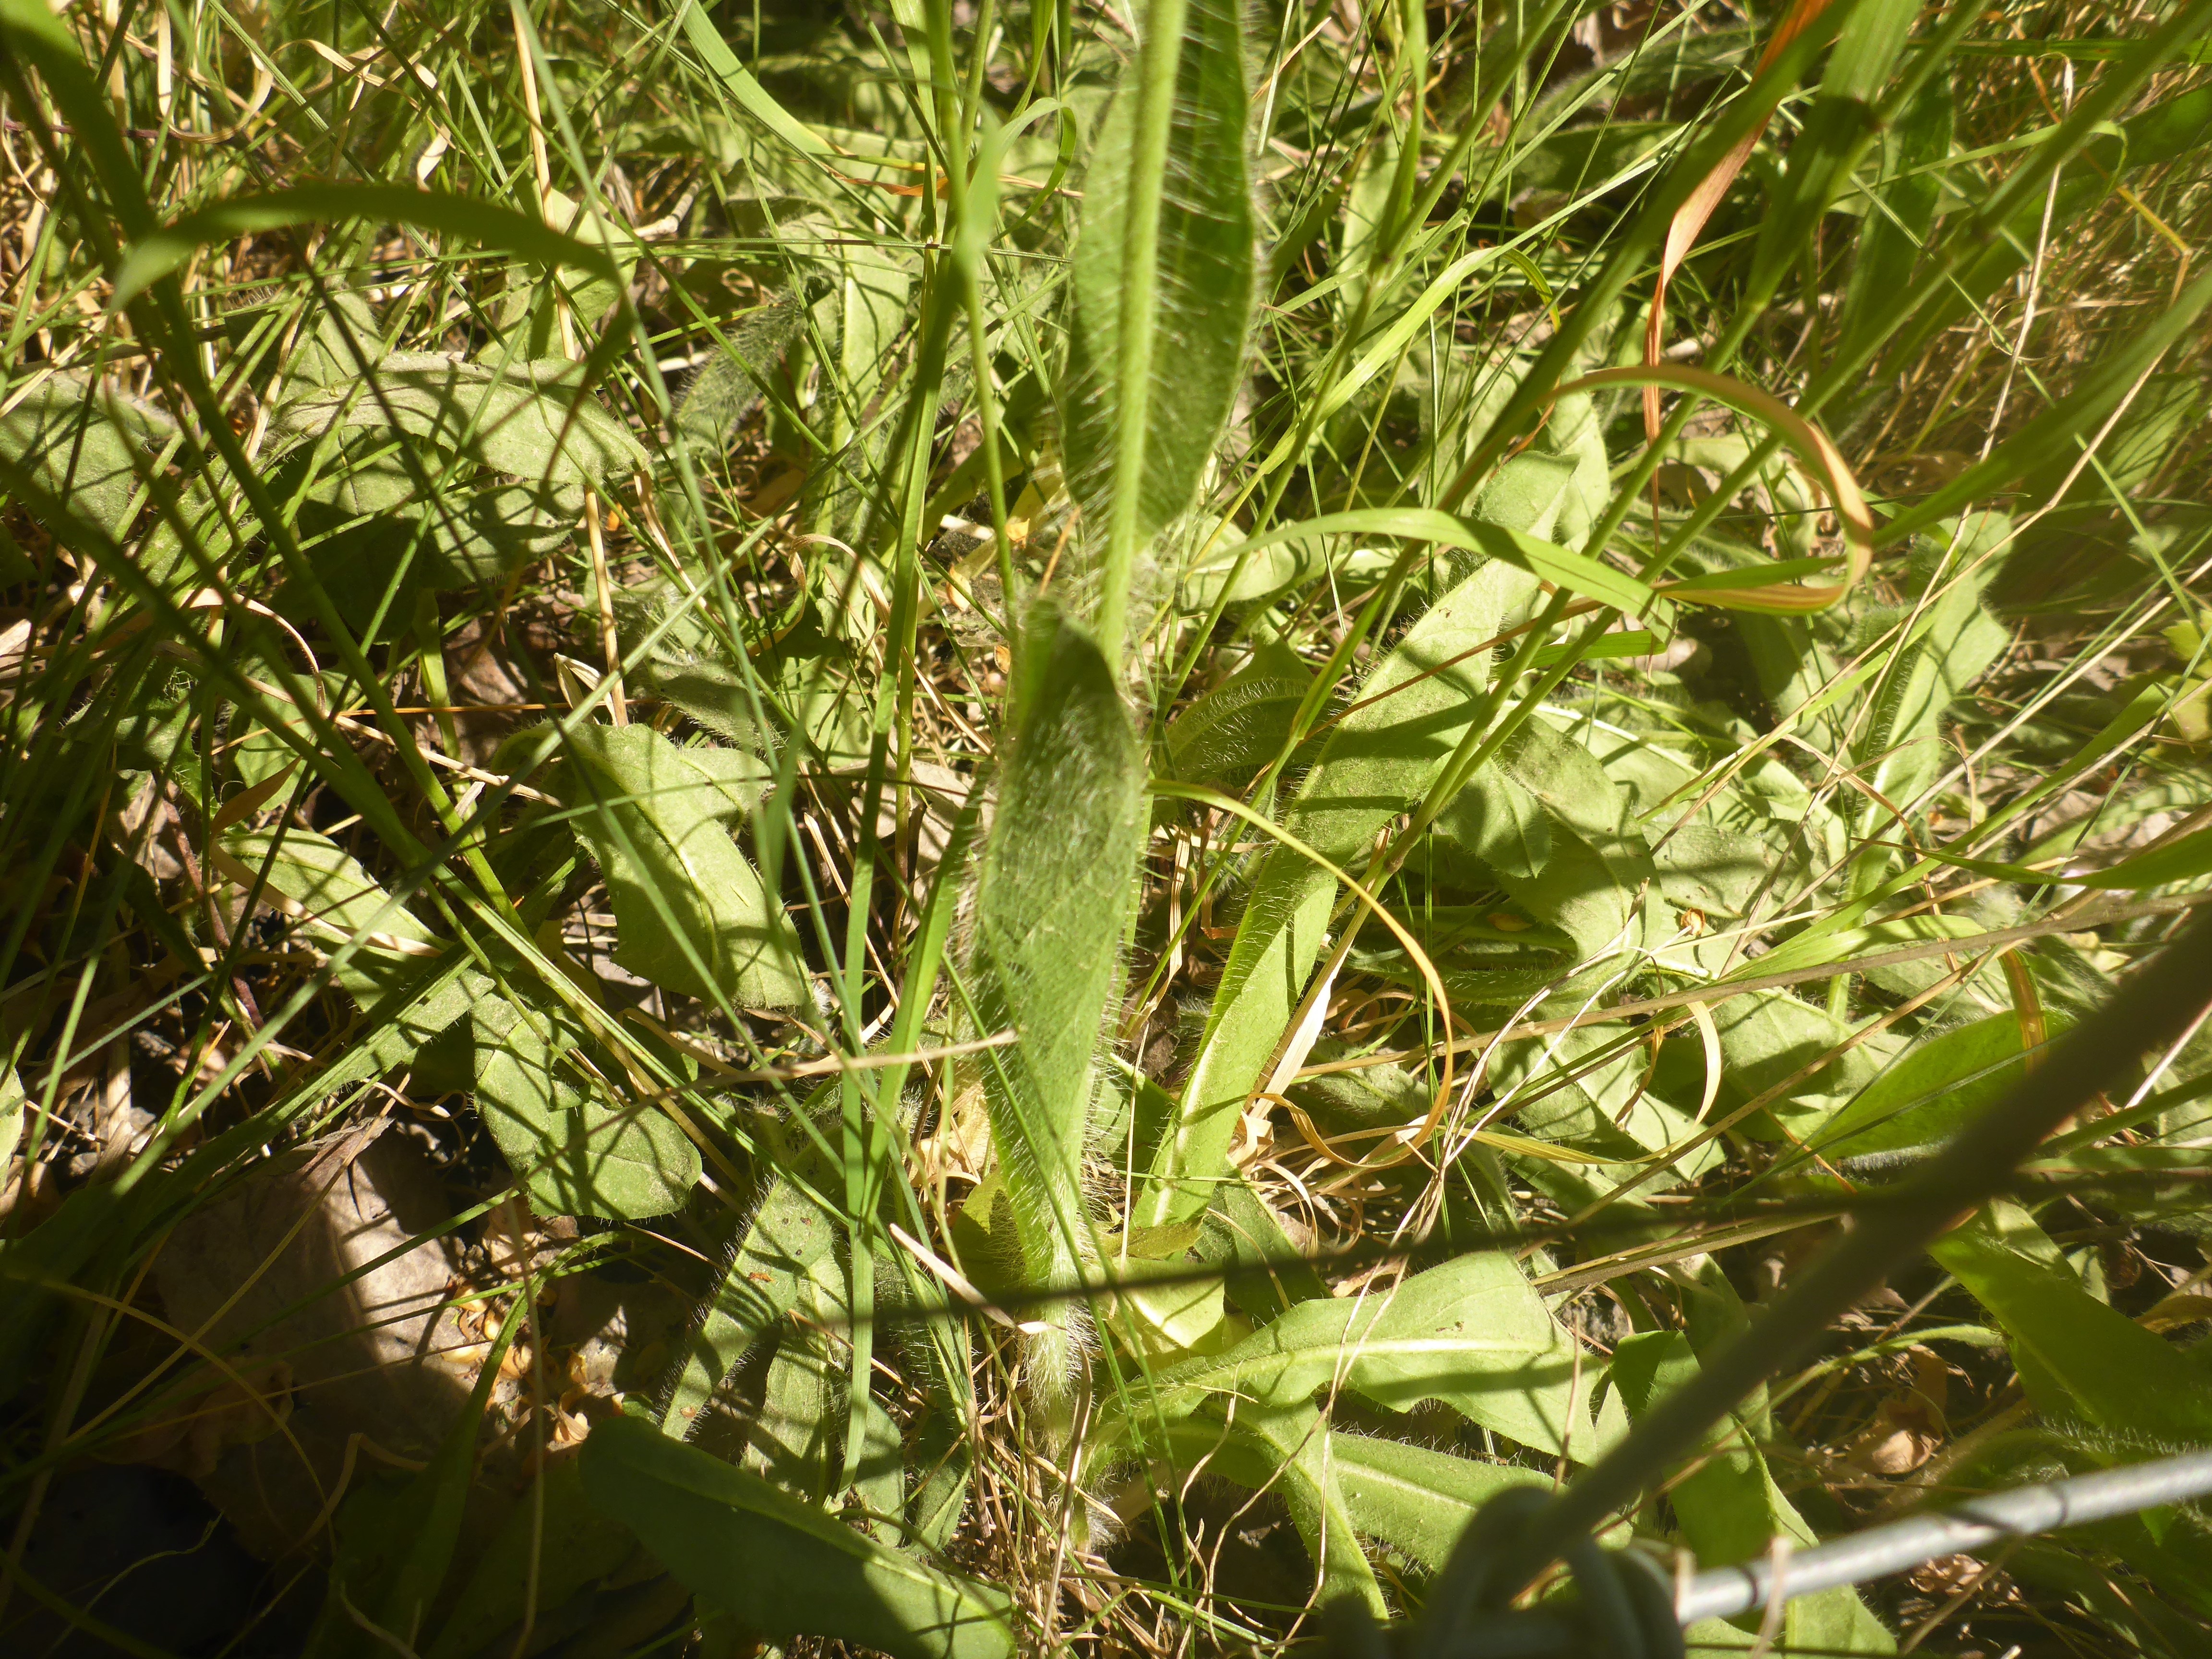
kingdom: Plantae
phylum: Tracheophyta
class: Magnoliopsida
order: Asterales
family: Asteraceae
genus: Pilosella
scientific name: Pilosella aurantiaca
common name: Pomerans-høgeurt
